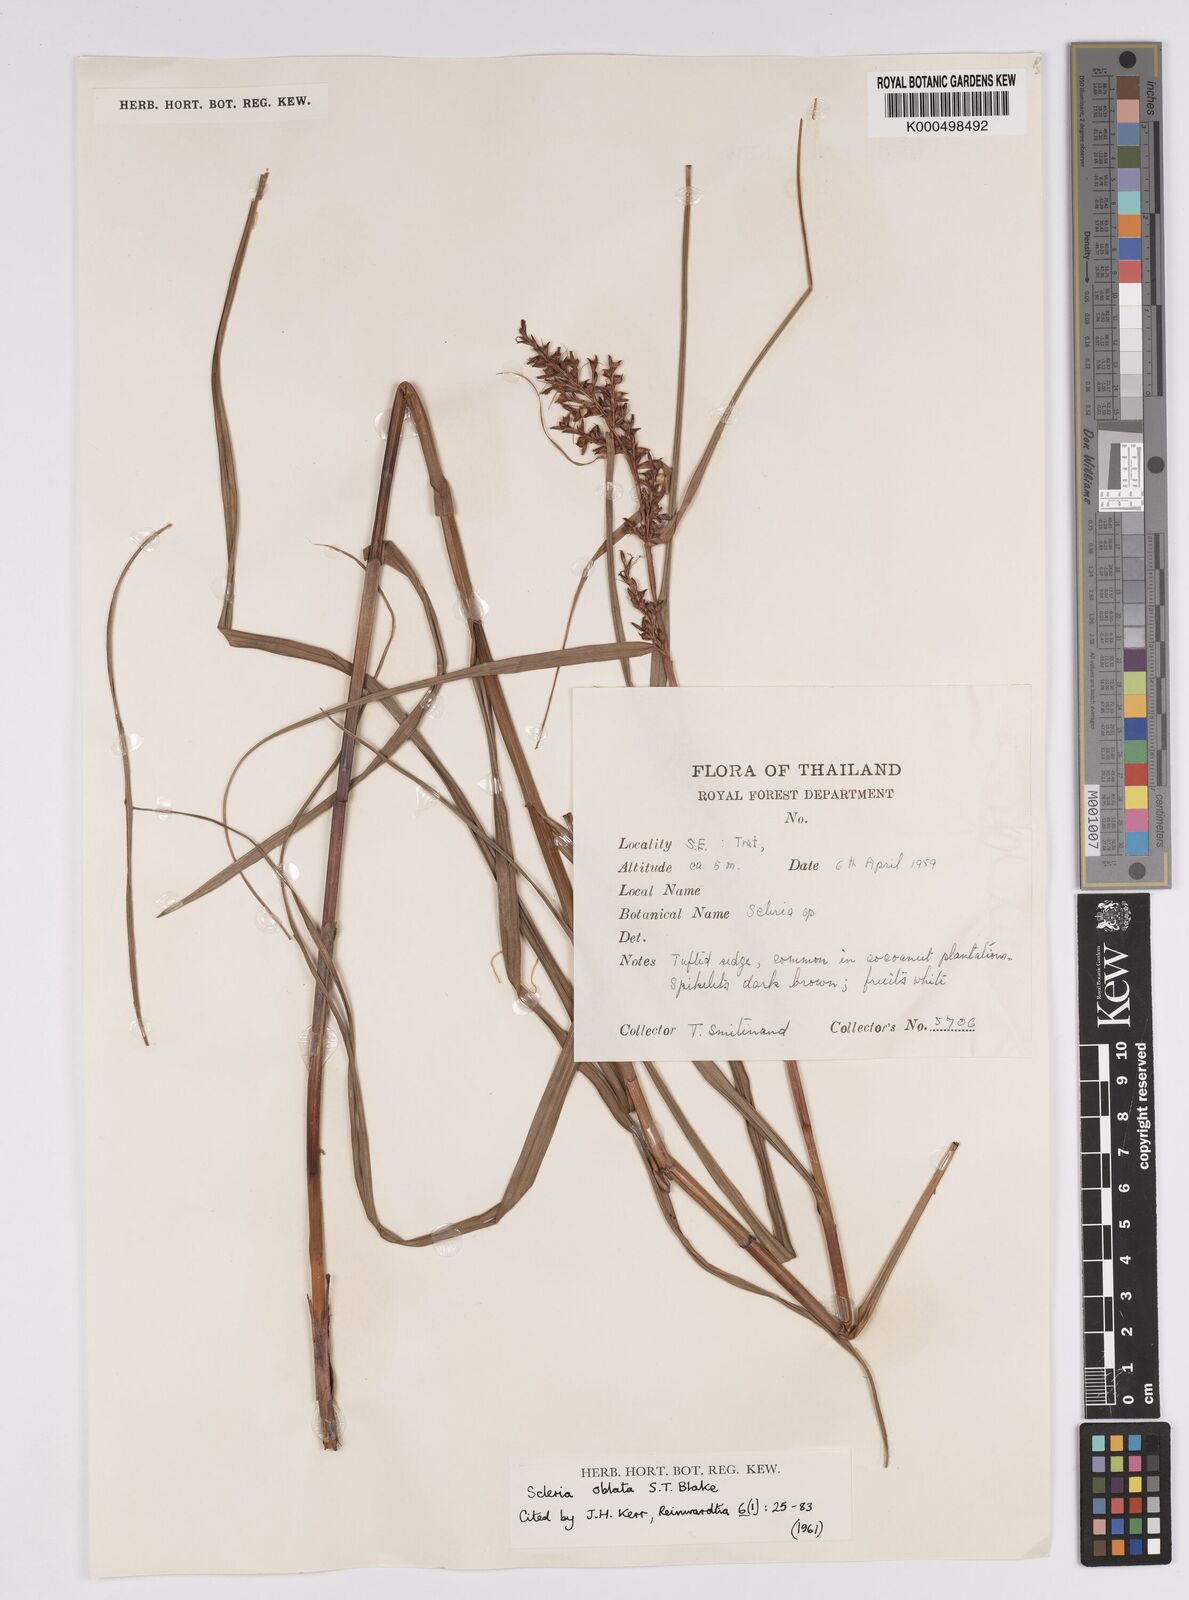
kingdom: Plantae
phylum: Tracheophyta
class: Liliopsida
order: Poales
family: Cyperaceae
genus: Scleria
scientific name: Scleria oblata
